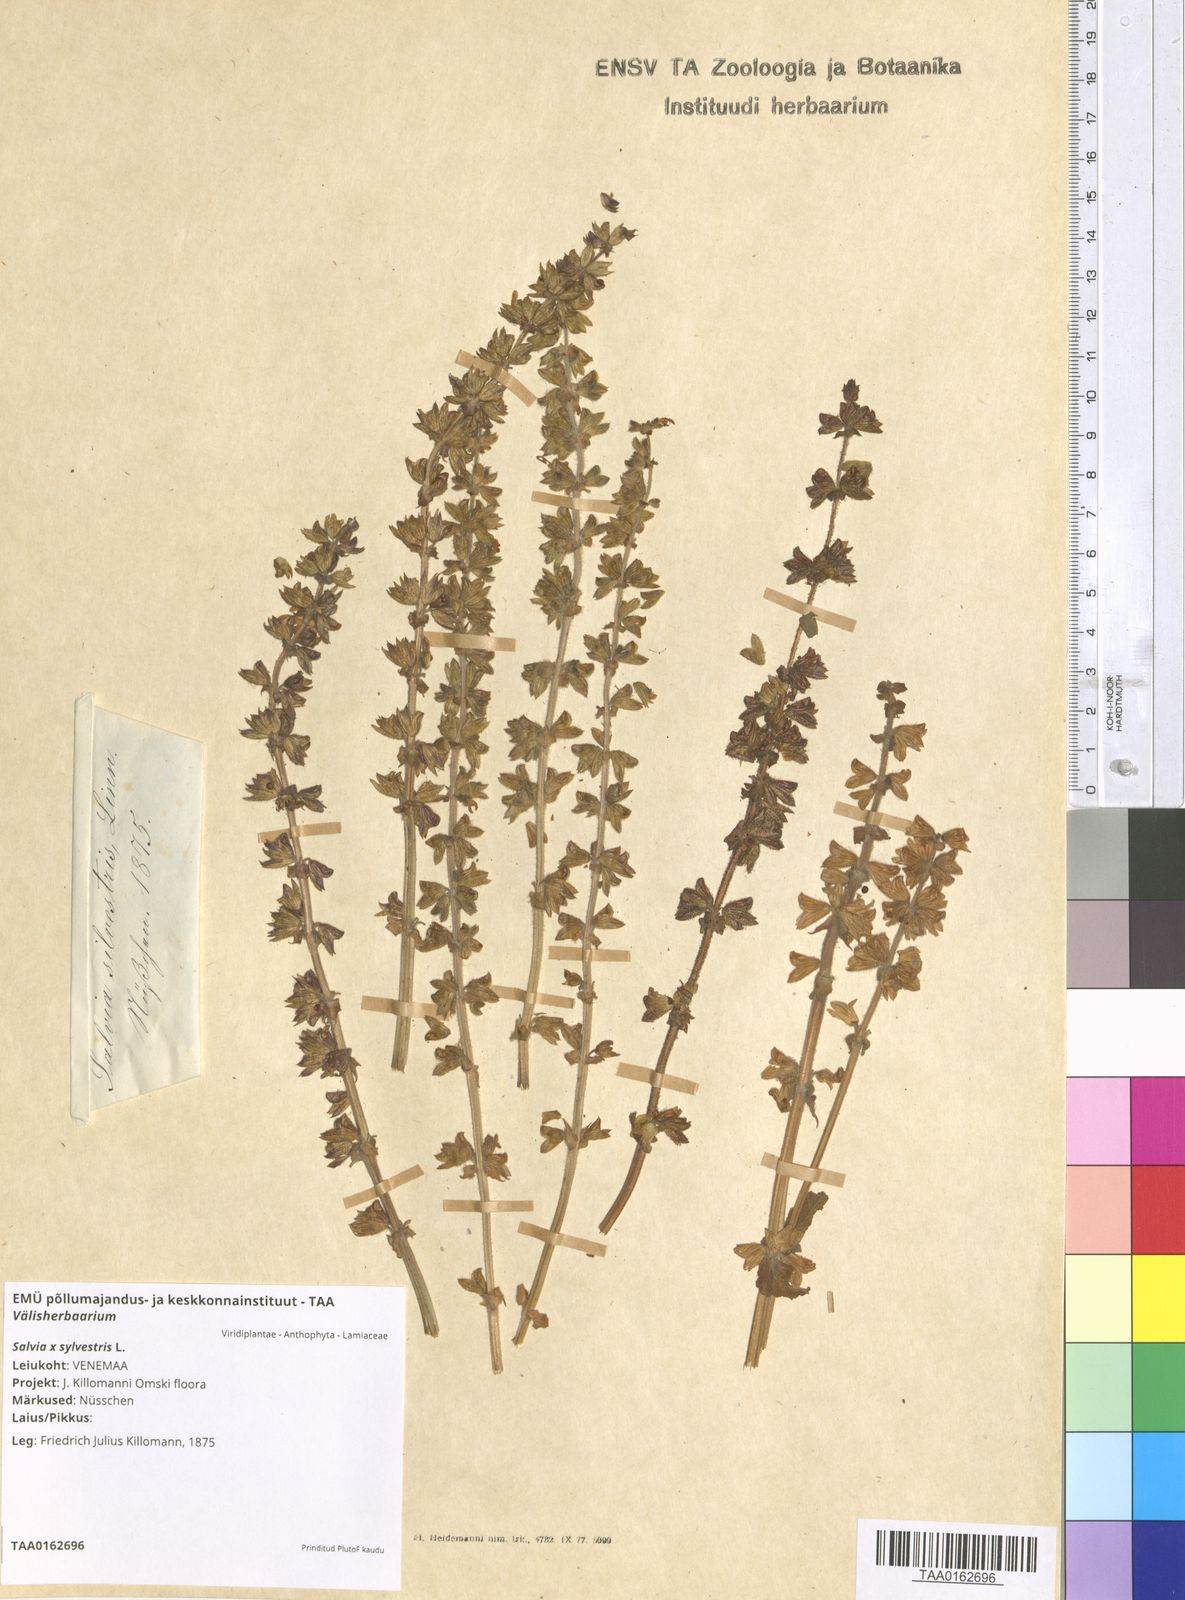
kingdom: Plantae
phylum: Tracheophyta
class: Magnoliopsida
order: Lamiales
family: Lamiaceae
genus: Salvia
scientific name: Salvia sylvestris
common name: Woodland sage
